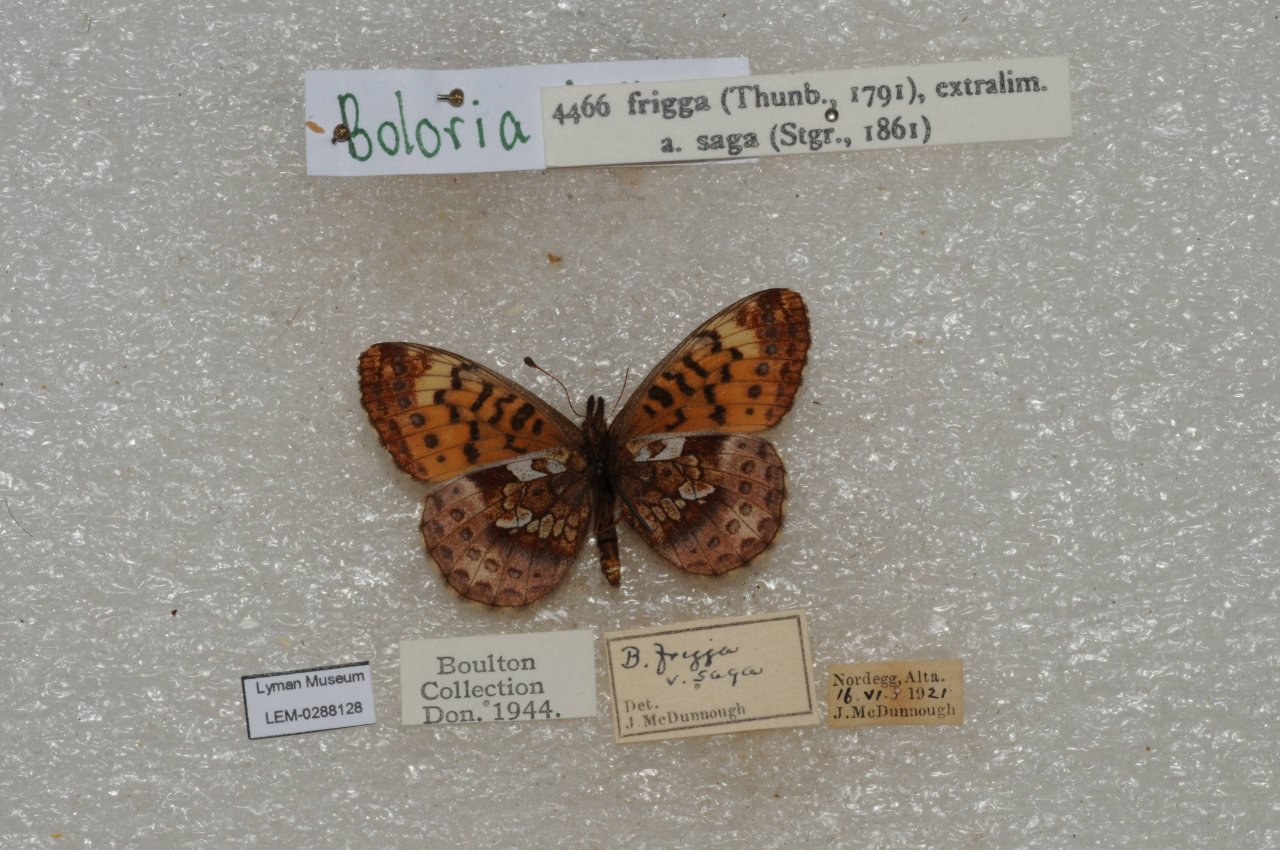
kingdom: Animalia
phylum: Arthropoda
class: Insecta
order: Lepidoptera
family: Nymphalidae
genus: Boloria
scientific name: Boloria frigga
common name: Frigga Fritillary
